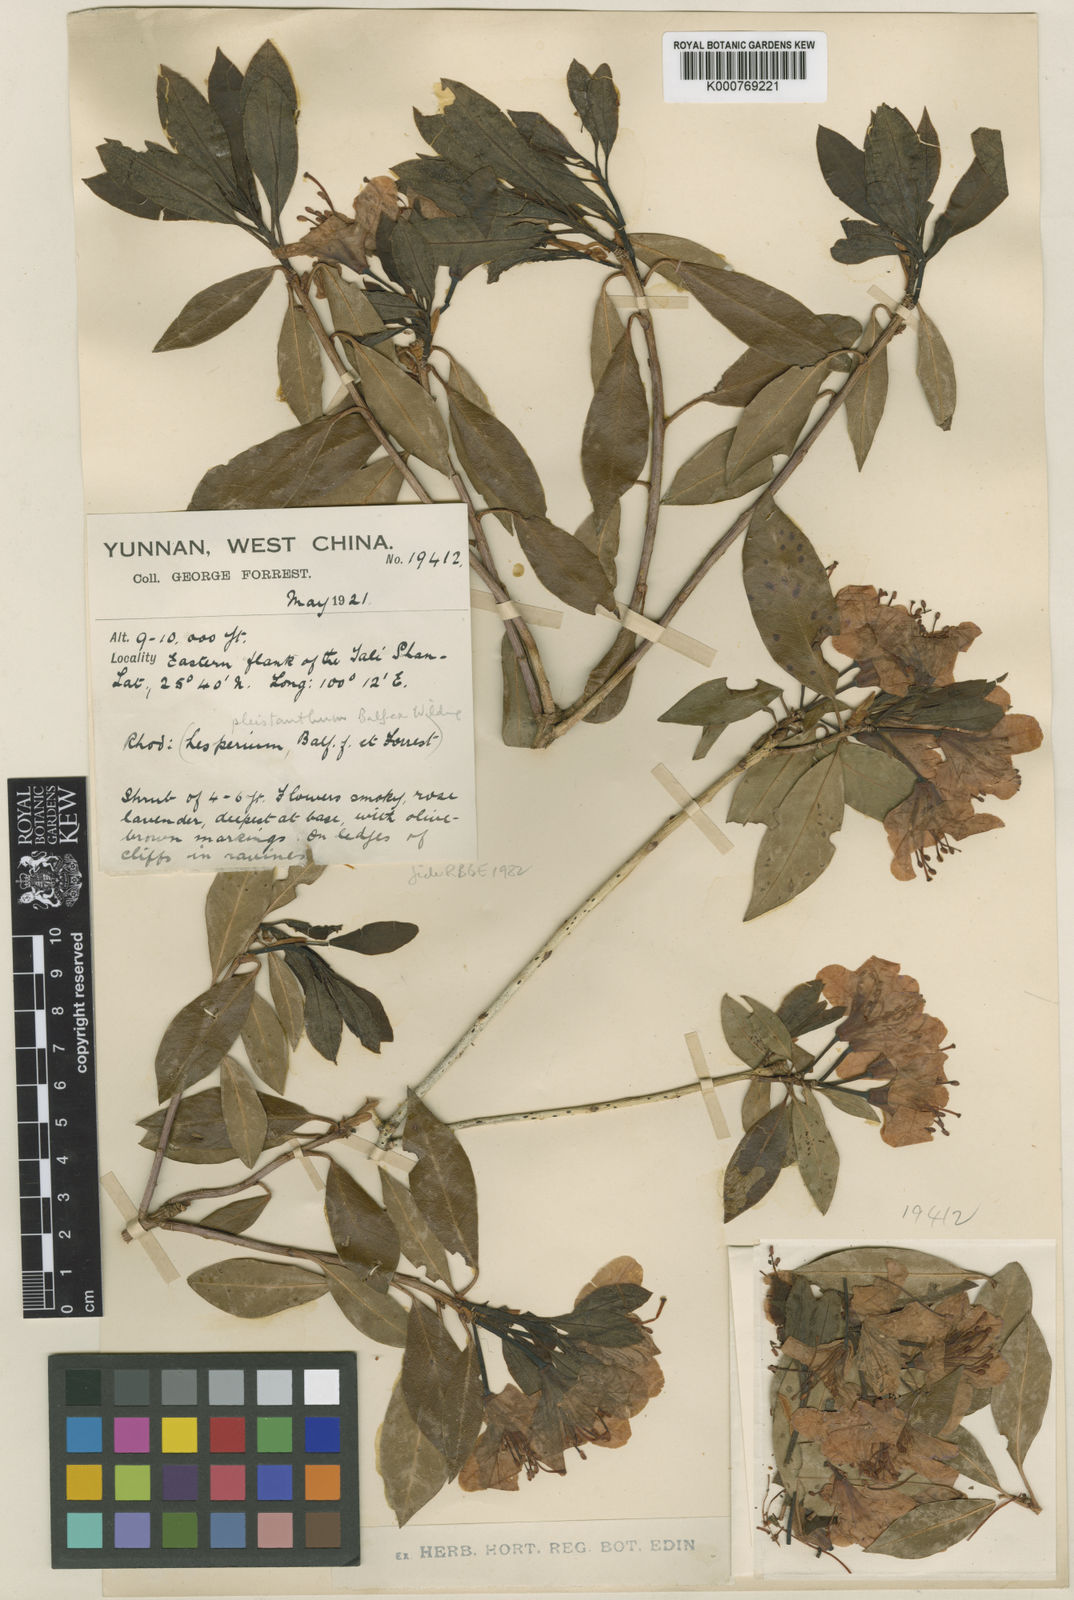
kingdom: Plantae
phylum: Tracheophyta
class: Magnoliopsida
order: Ericales
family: Ericaceae
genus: Rhododendron
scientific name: Rhododendron
